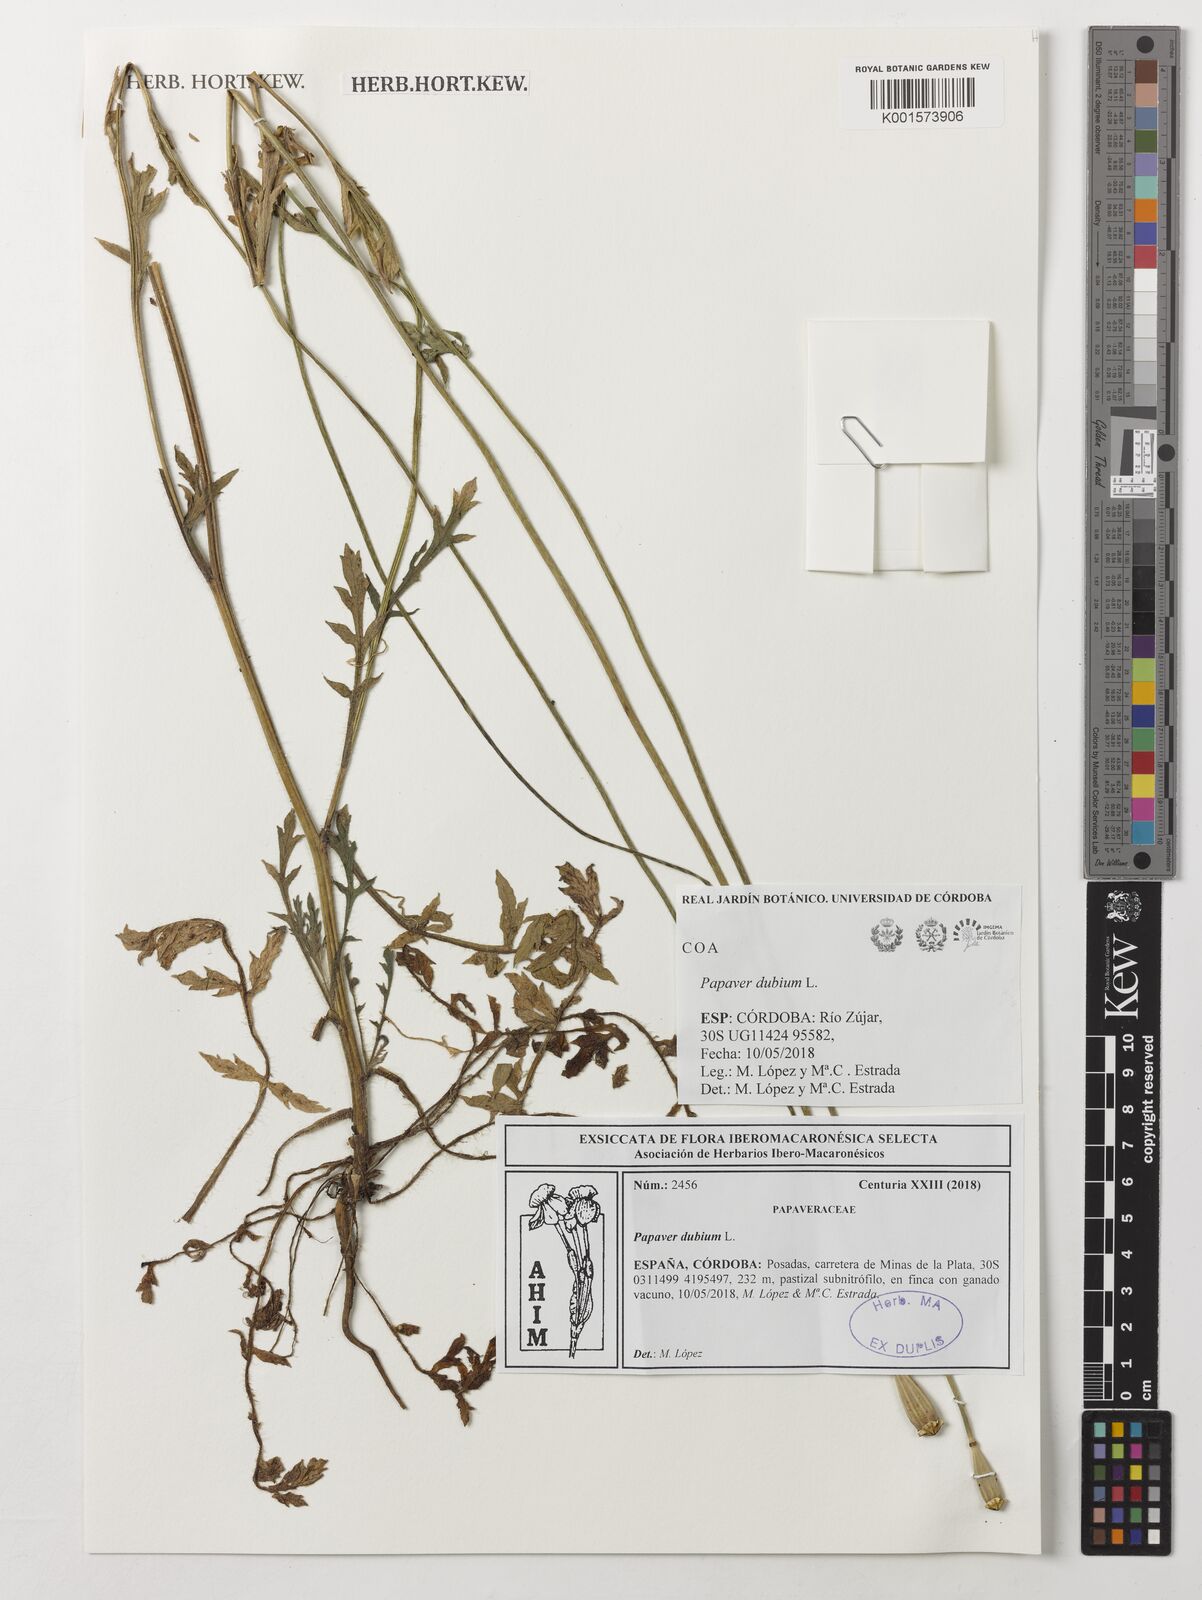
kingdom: Plantae
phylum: Tracheophyta
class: Magnoliopsida
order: Ranunculales
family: Papaveraceae
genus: Papaver
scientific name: Papaver dubium
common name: Long-headed poppy
